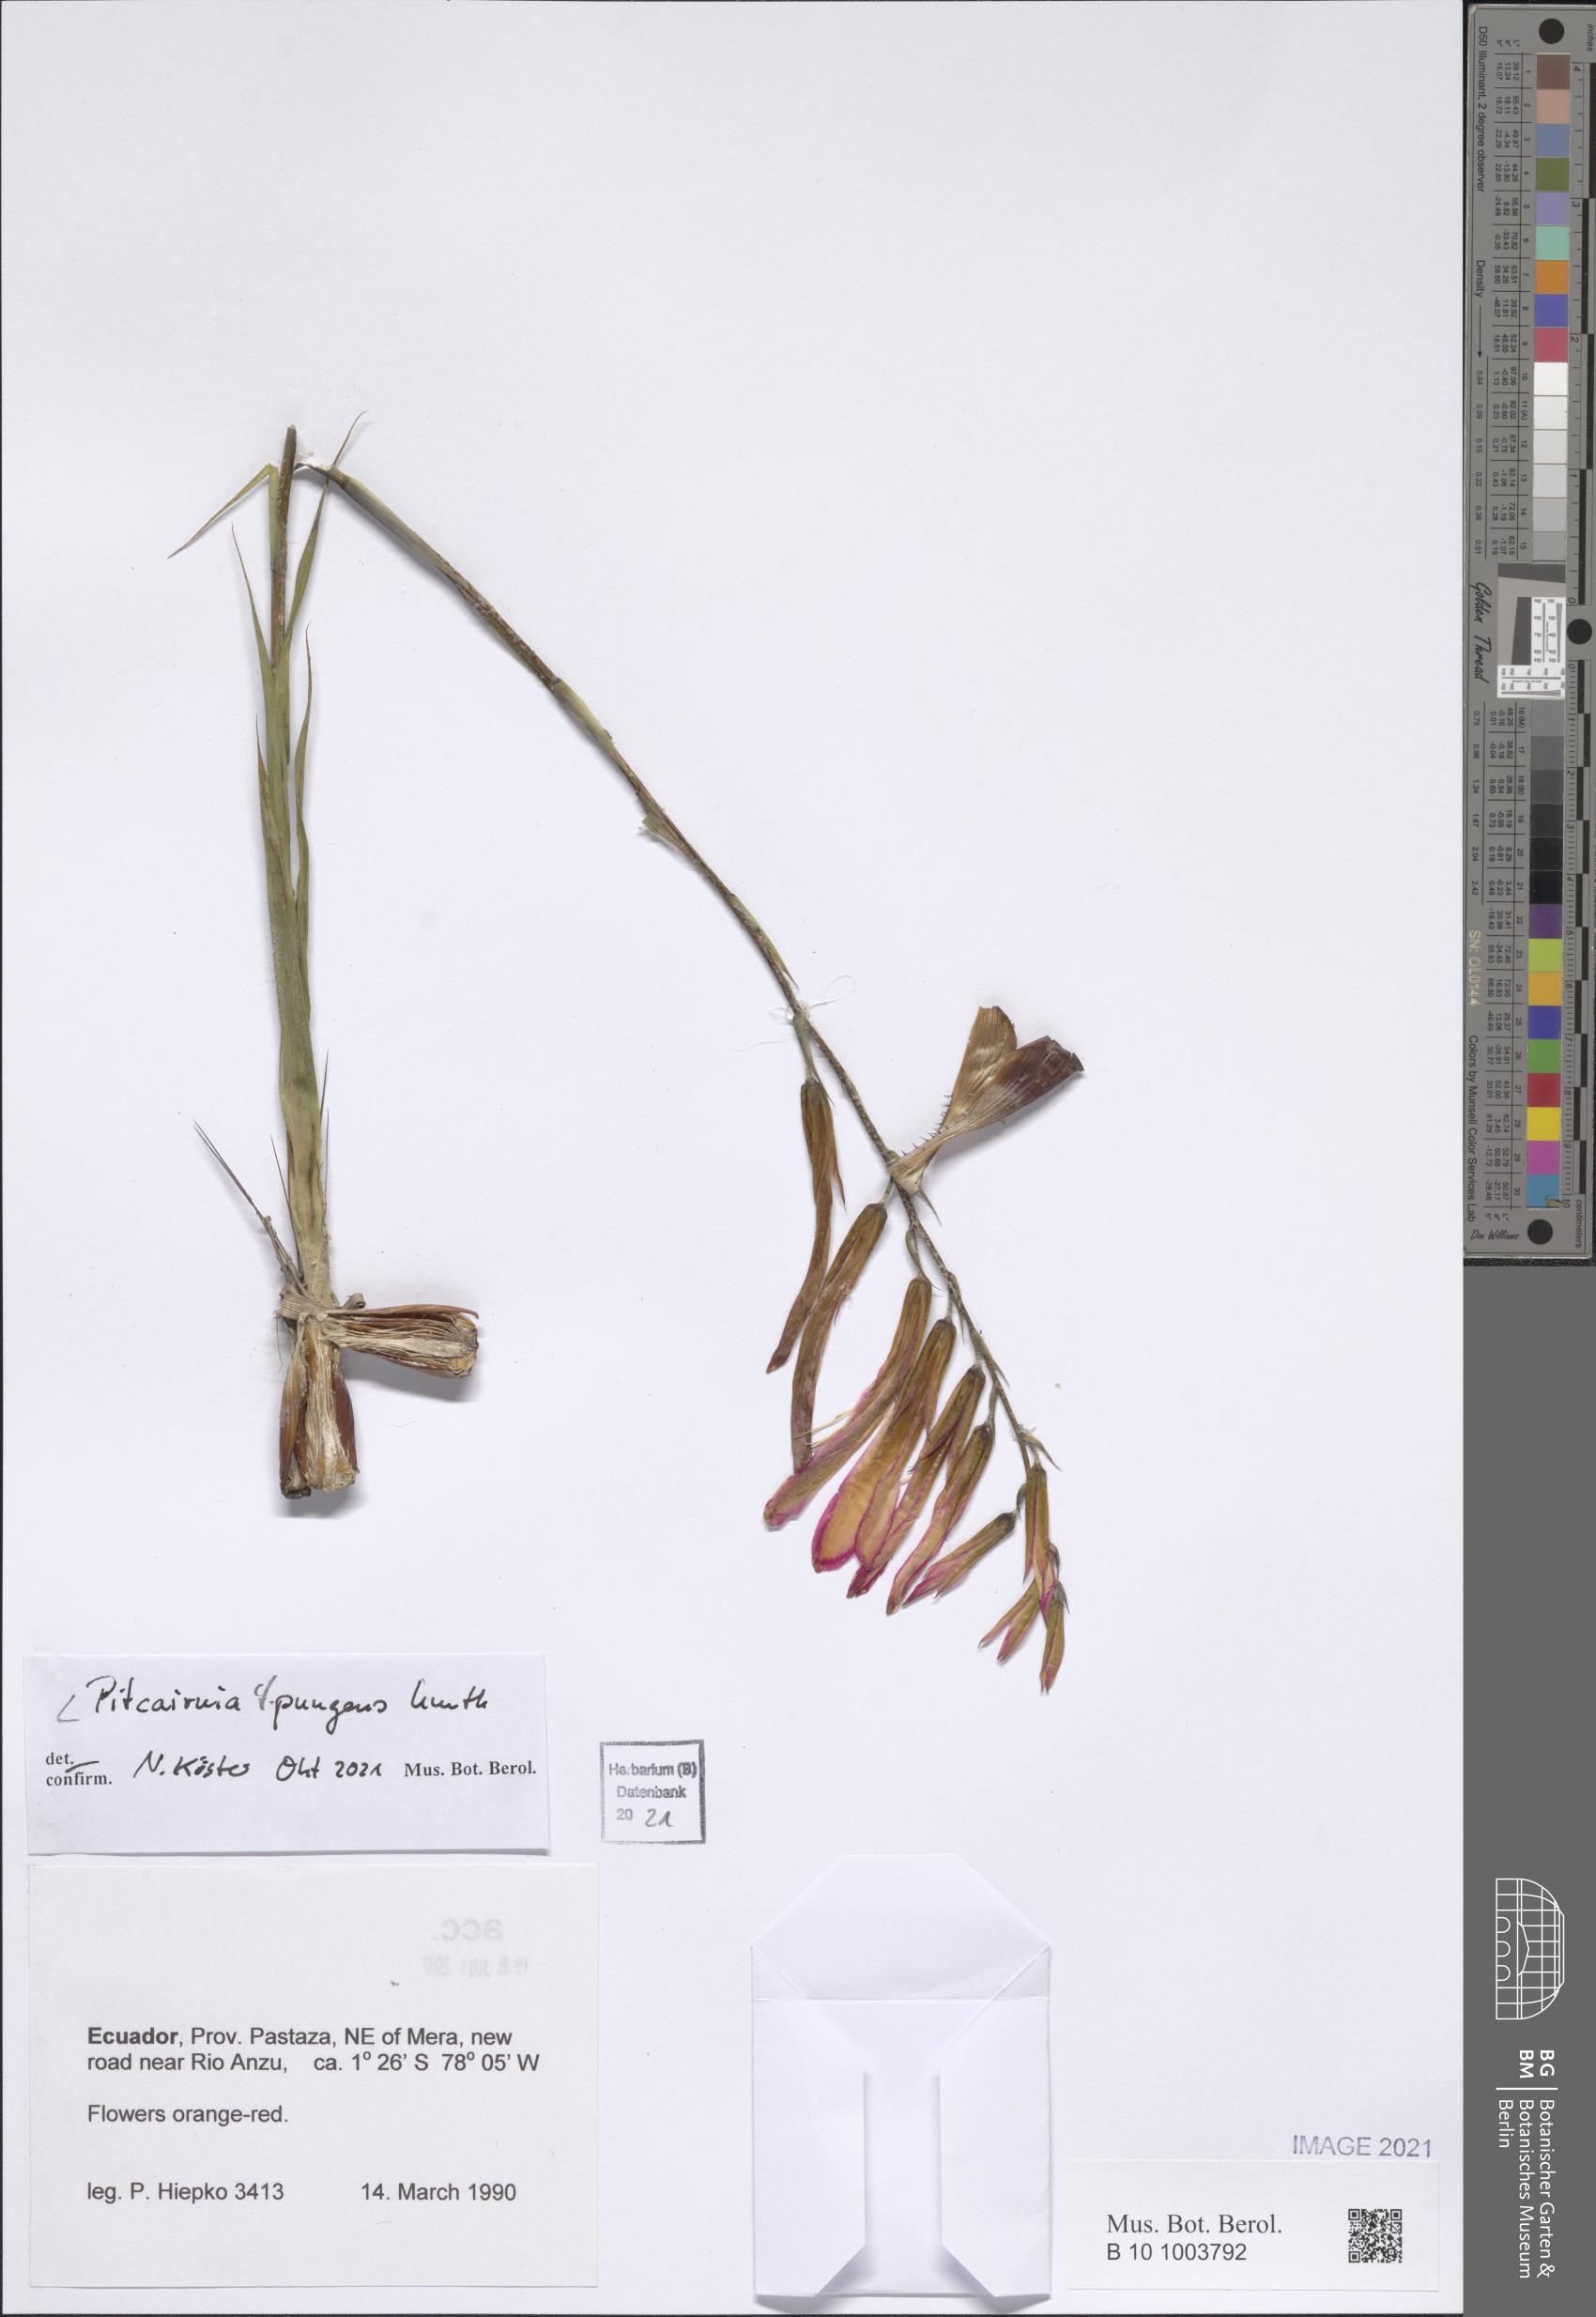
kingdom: Plantae
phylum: Tracheophyta
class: Liliopsida
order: Poales
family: Bromeliaceae
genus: Pitcairnia
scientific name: Pitcairnia pungens
